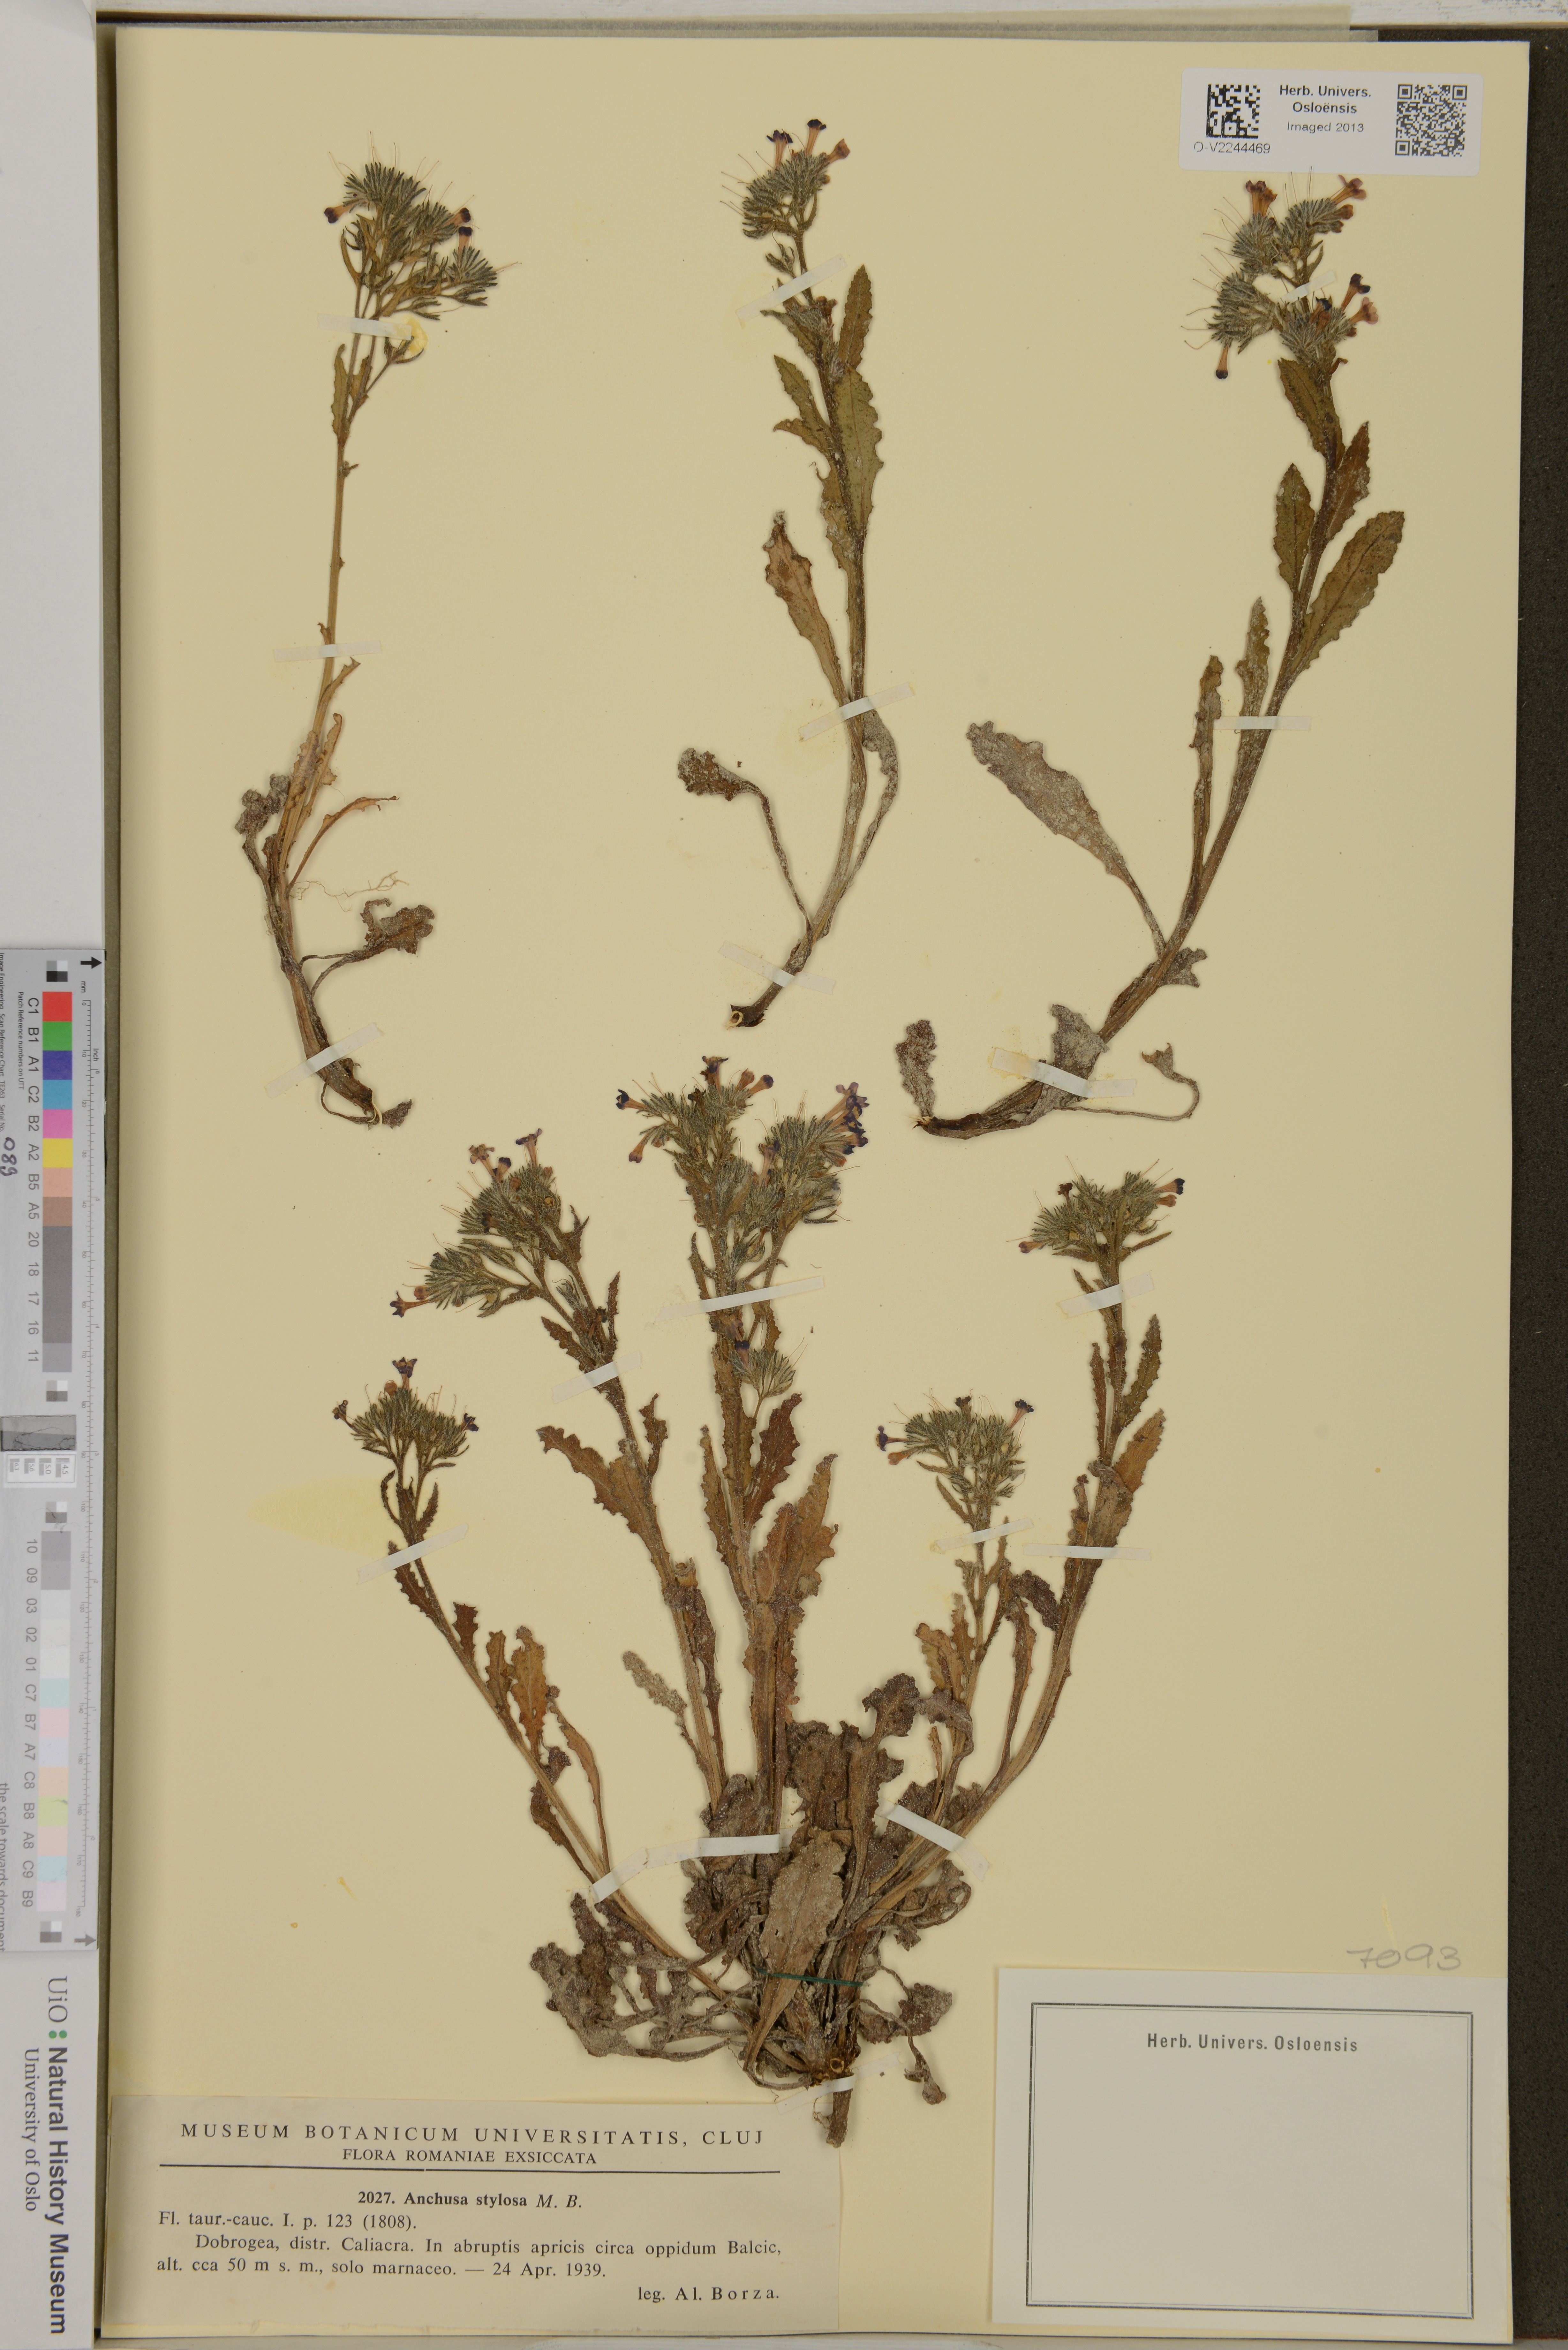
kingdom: Plantae
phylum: Tracheophyta
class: Magnoliopsida
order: Boraginales
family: Boraginaceae
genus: Anchusa
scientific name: Anchusa stylosa
